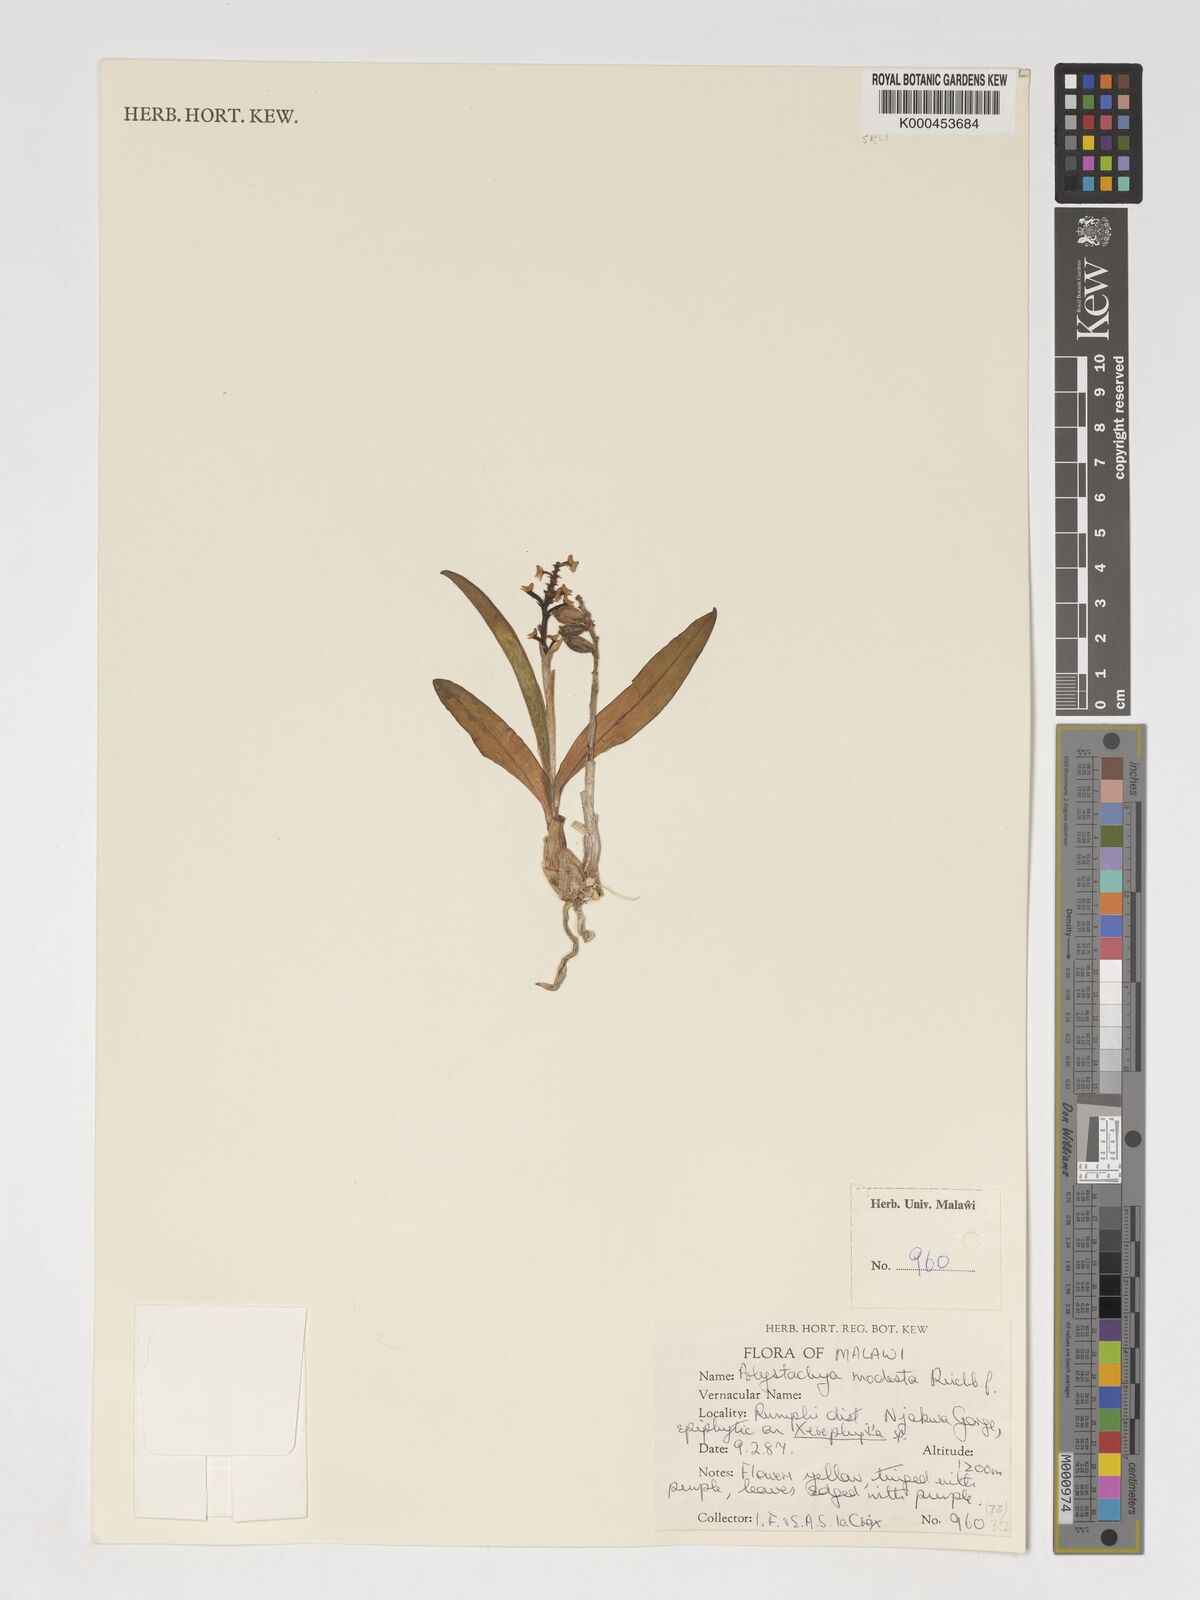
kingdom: Plantae
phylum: Tracheophyta
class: Liliopsida
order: Asparagales
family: Orchidaceae
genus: Polystachya
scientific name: Polystachya modesta
